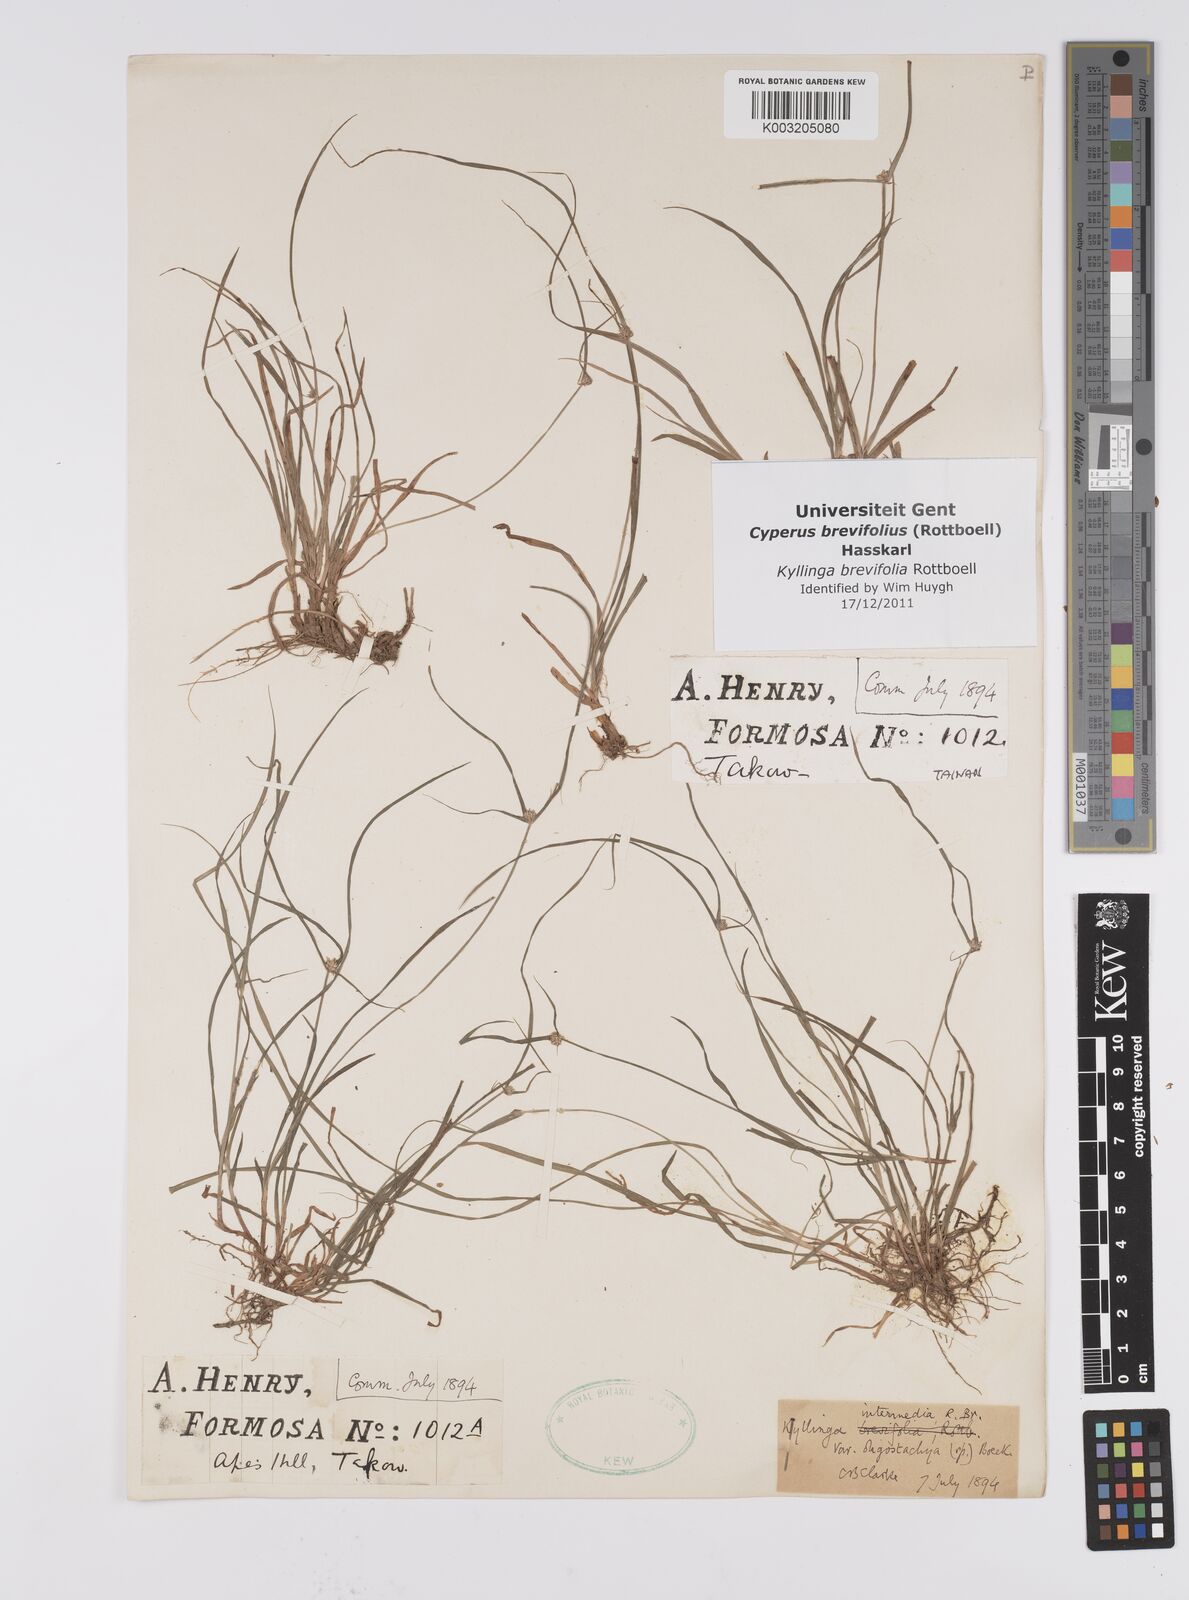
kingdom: Plantae
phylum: Tracheophyta
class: Liliopsida
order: Poales
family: Cyperaceae
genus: Cyperus
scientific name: Cyperus brevifolius
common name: Globe kyllinga
